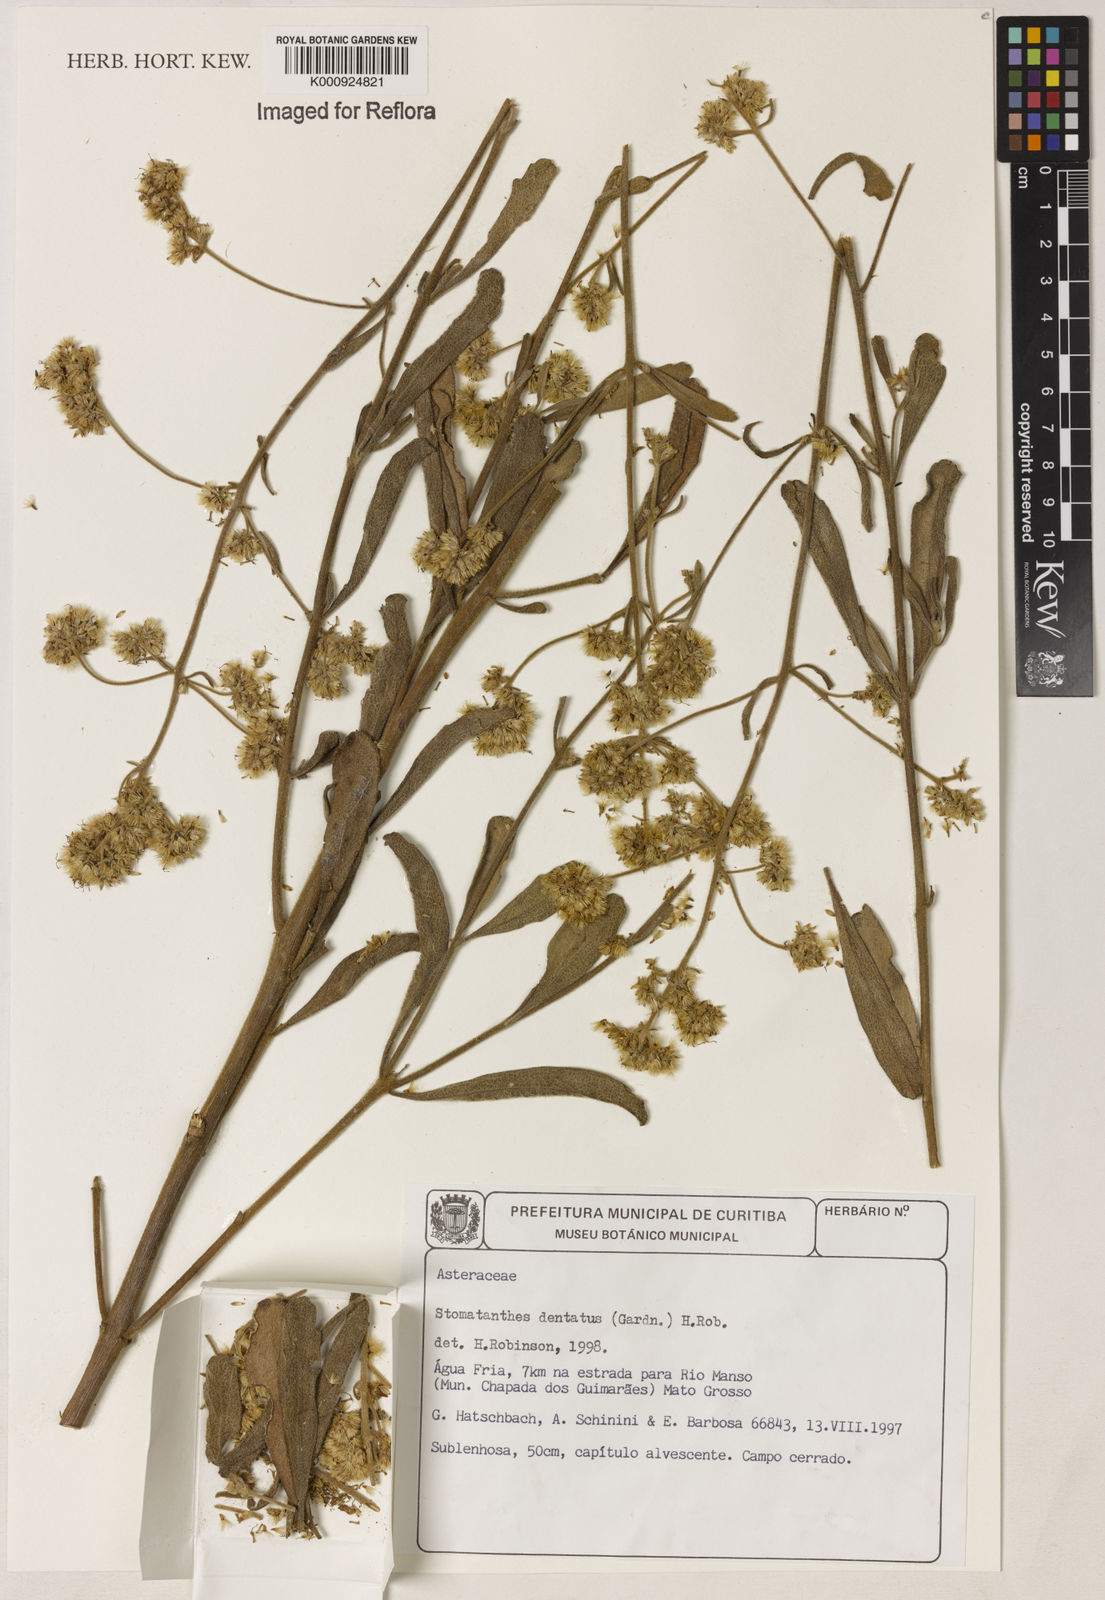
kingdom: Plantae
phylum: Tracheophyta
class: Magnoliopsida
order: Asterales
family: Asteraceae
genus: Stomatanthes
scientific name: Stomatanthes dentatus
